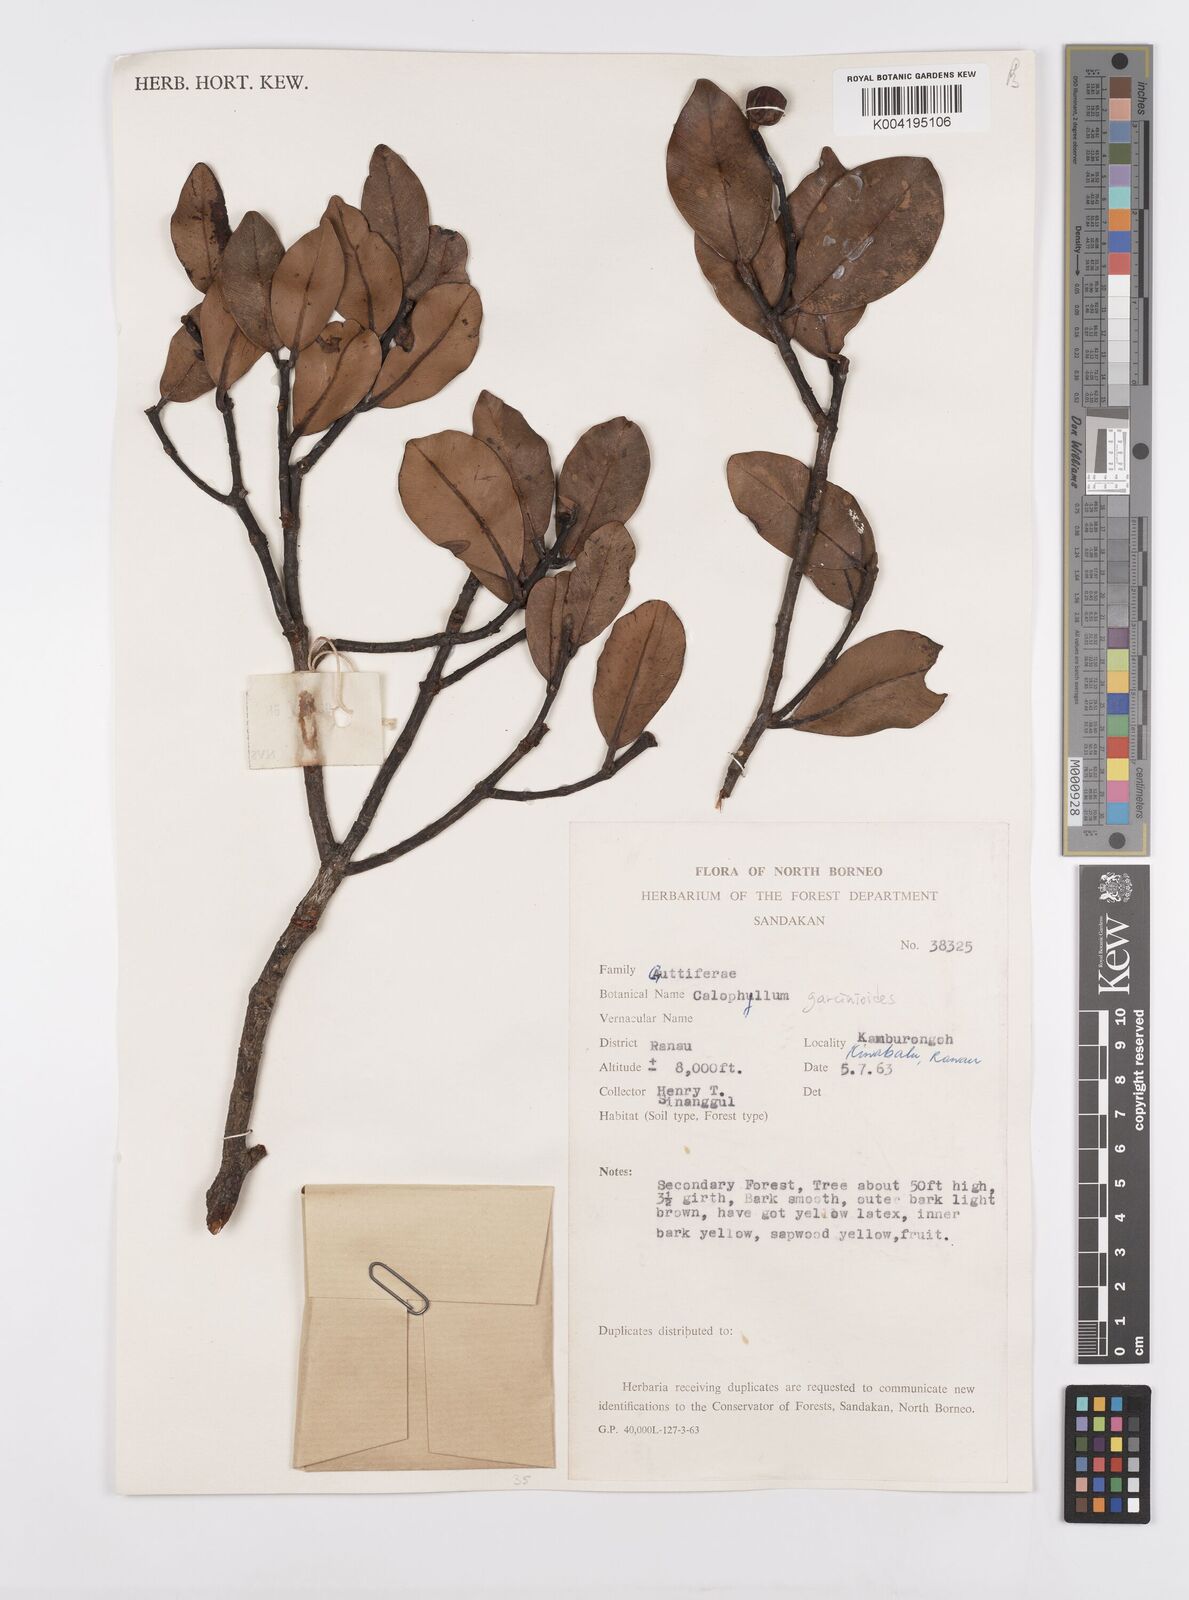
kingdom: Plantae
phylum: Tracheophyta
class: Magnoliopsida
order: Malpighiales
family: Calophyllaceae
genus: Calophyllum
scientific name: Calophyllum garcinioides
